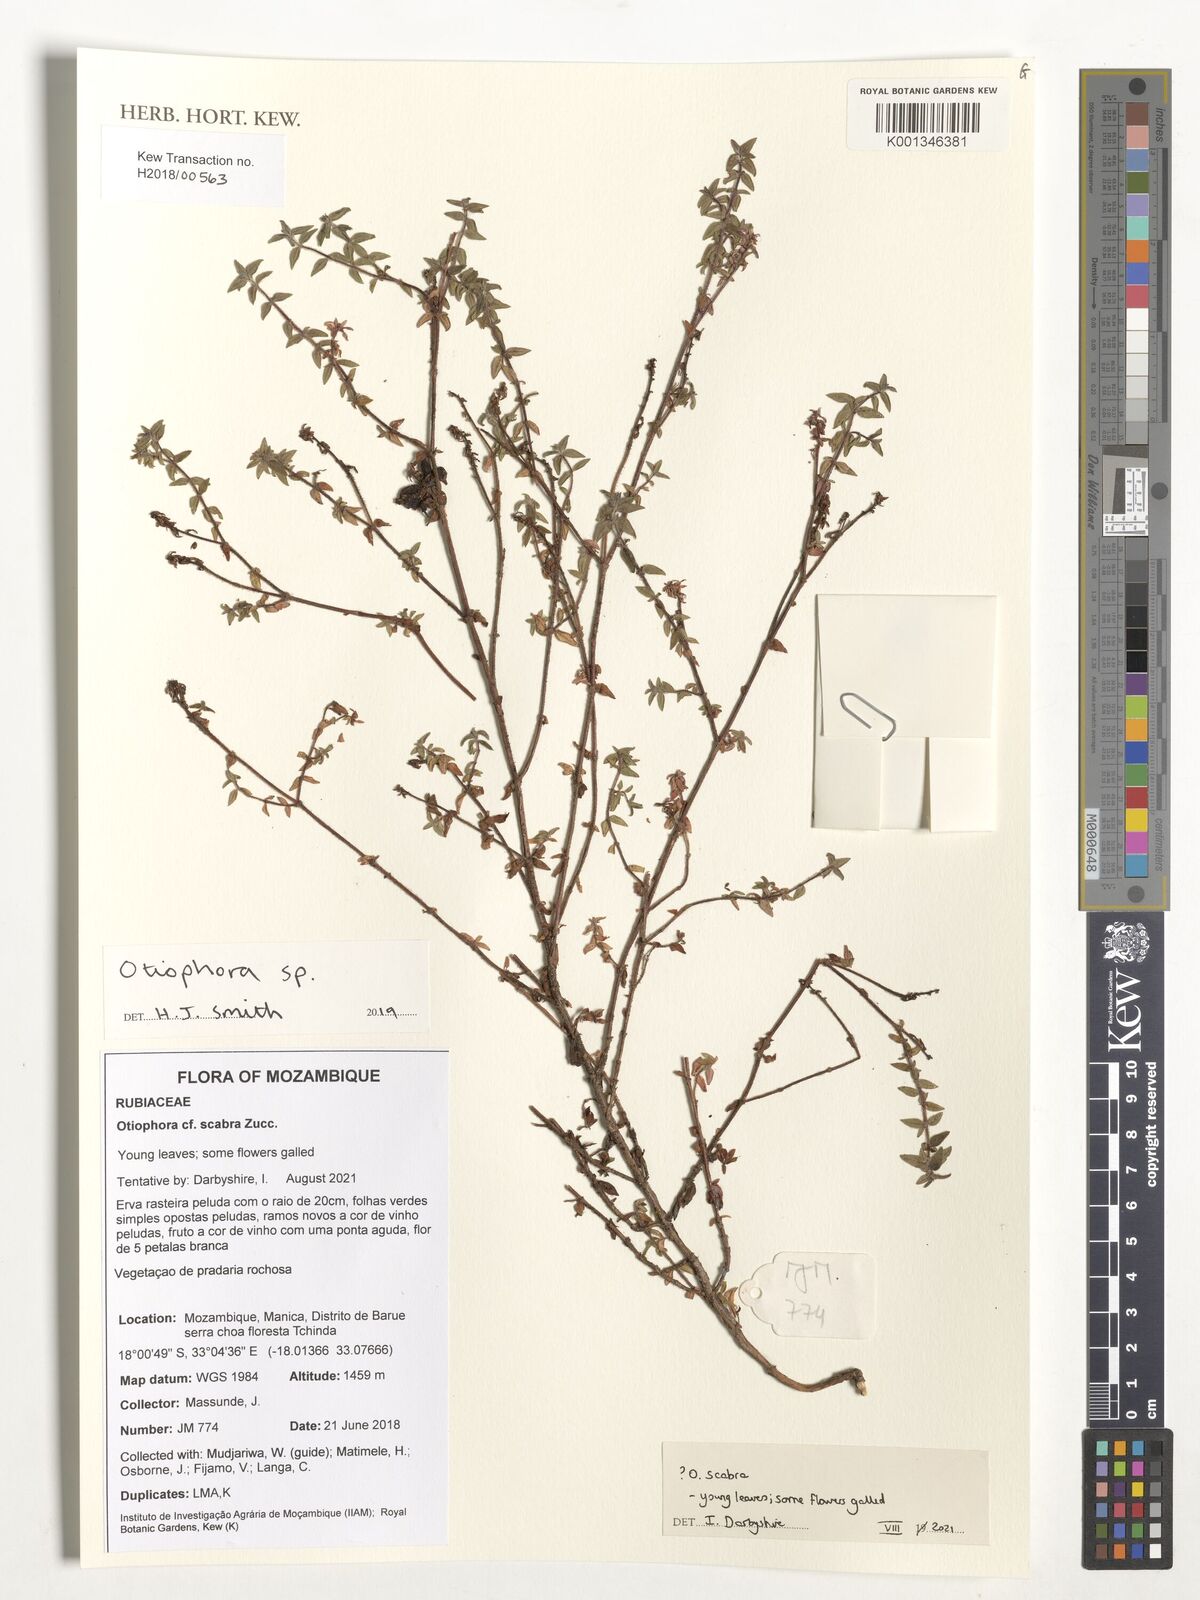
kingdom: Plantae
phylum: Tracheophyta
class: Magnoliopsida
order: Gentianales
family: Rubiaceae
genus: Otiophora
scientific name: Otiophora scabra
